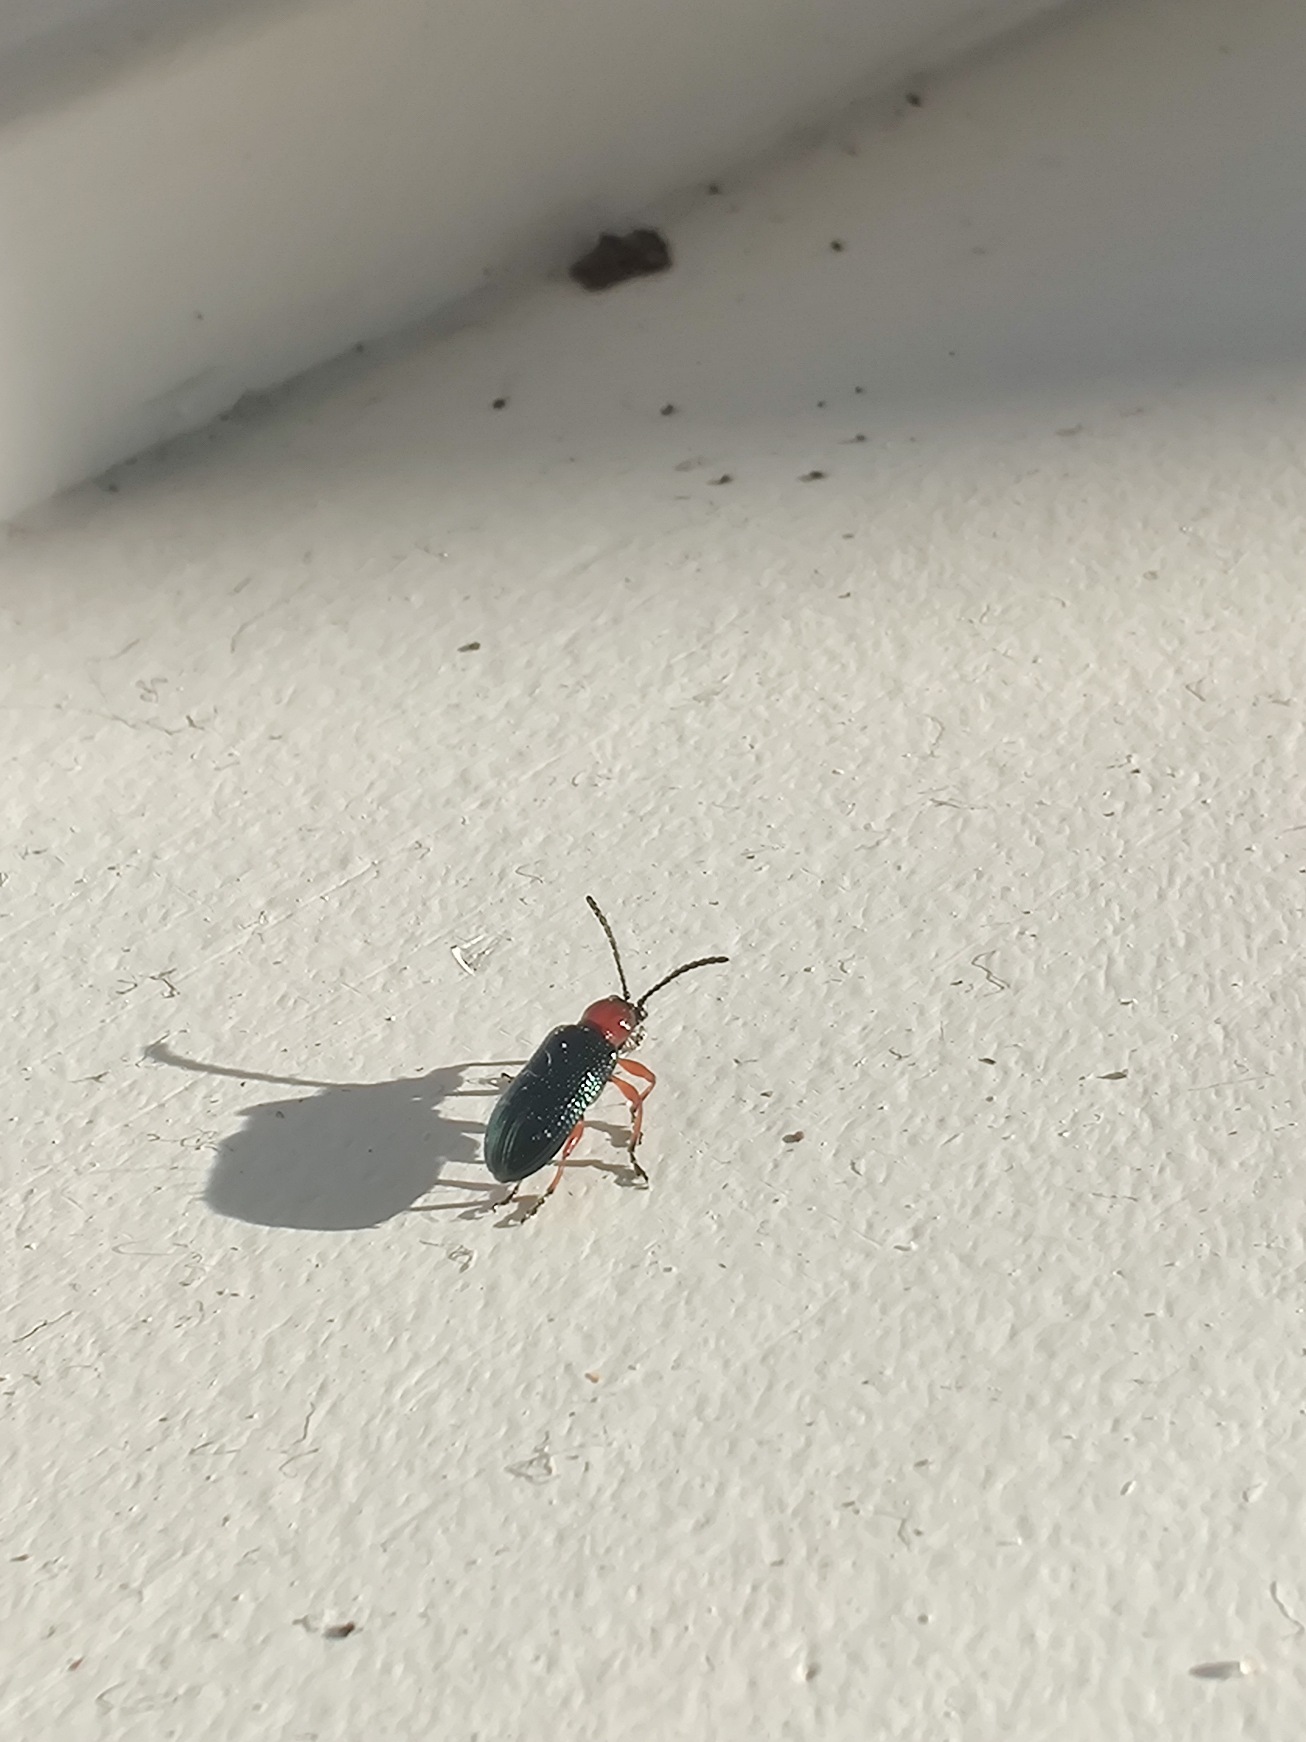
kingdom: Animalia
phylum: Arthropoda
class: Insecta
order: Coleoptera
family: Chrysomelidae
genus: Oulema
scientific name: Oulema
